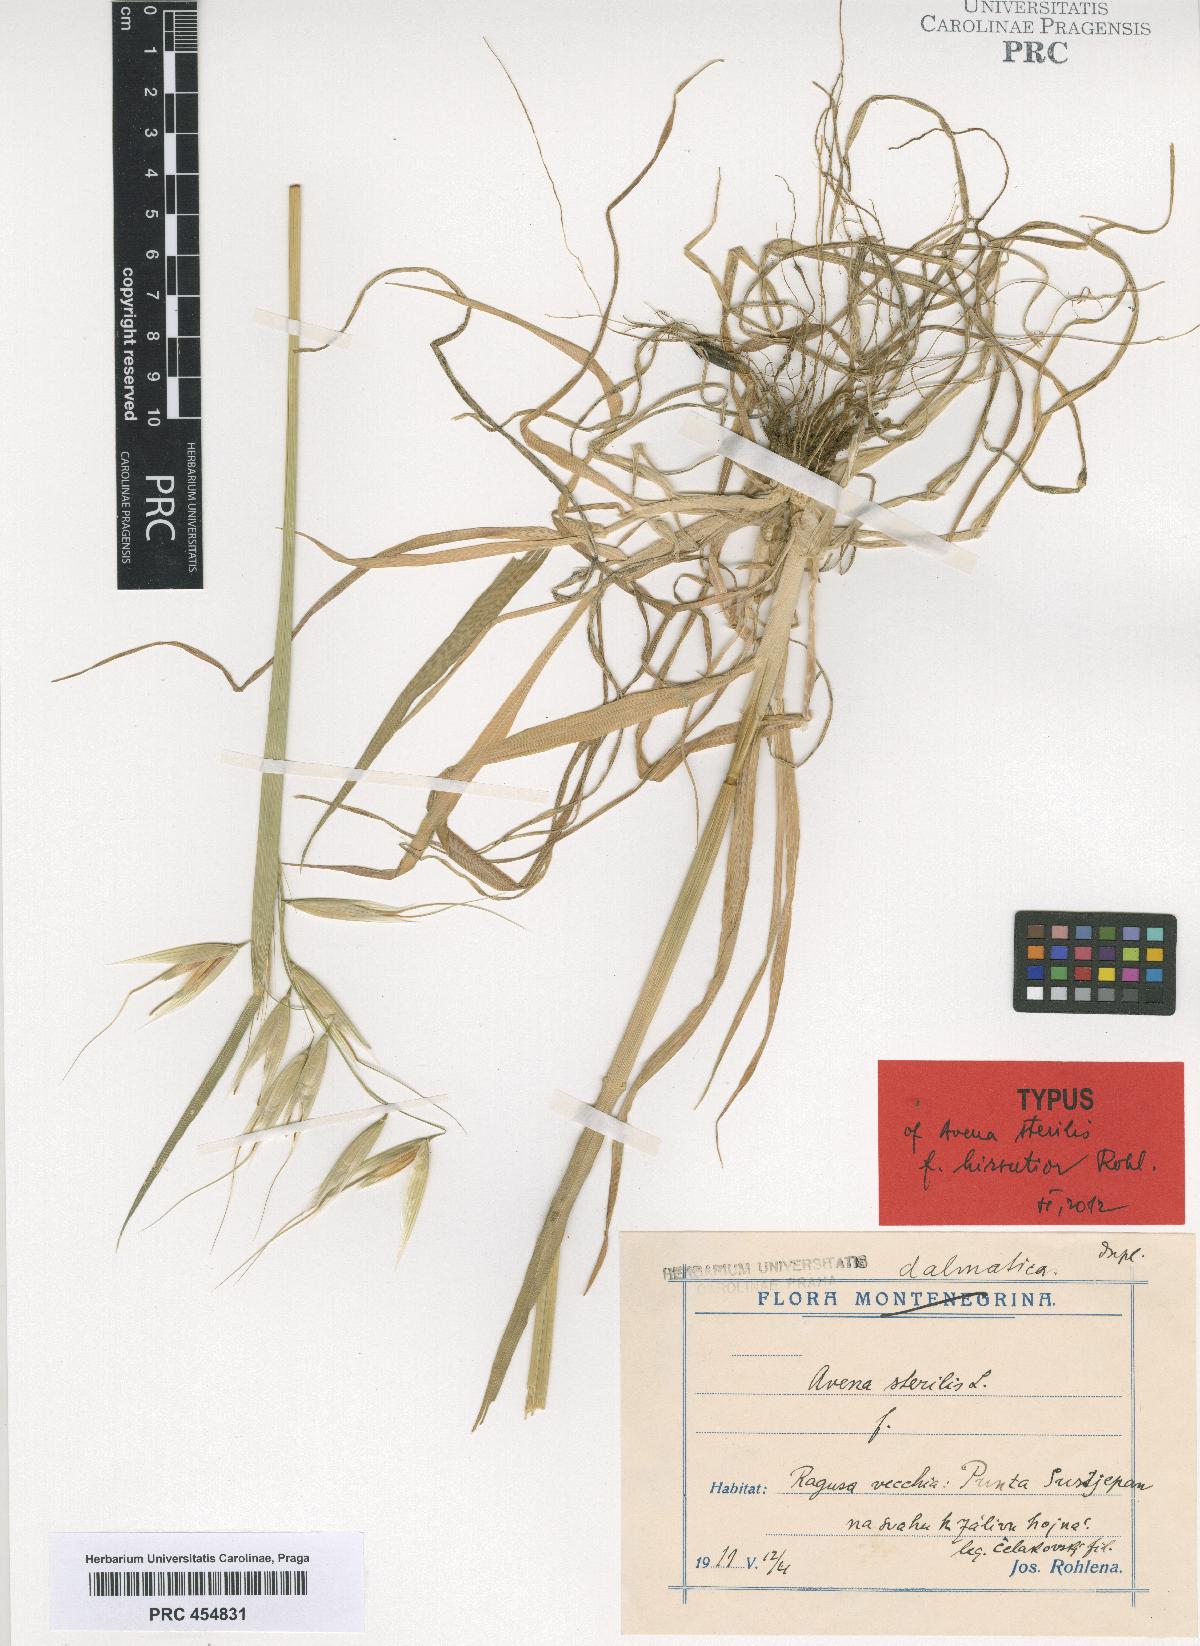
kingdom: Plantae
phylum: Tracheophyta
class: Liliopsida
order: Poales
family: Poaceae
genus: Avena
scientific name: Avena sterilis
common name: Animated oat
